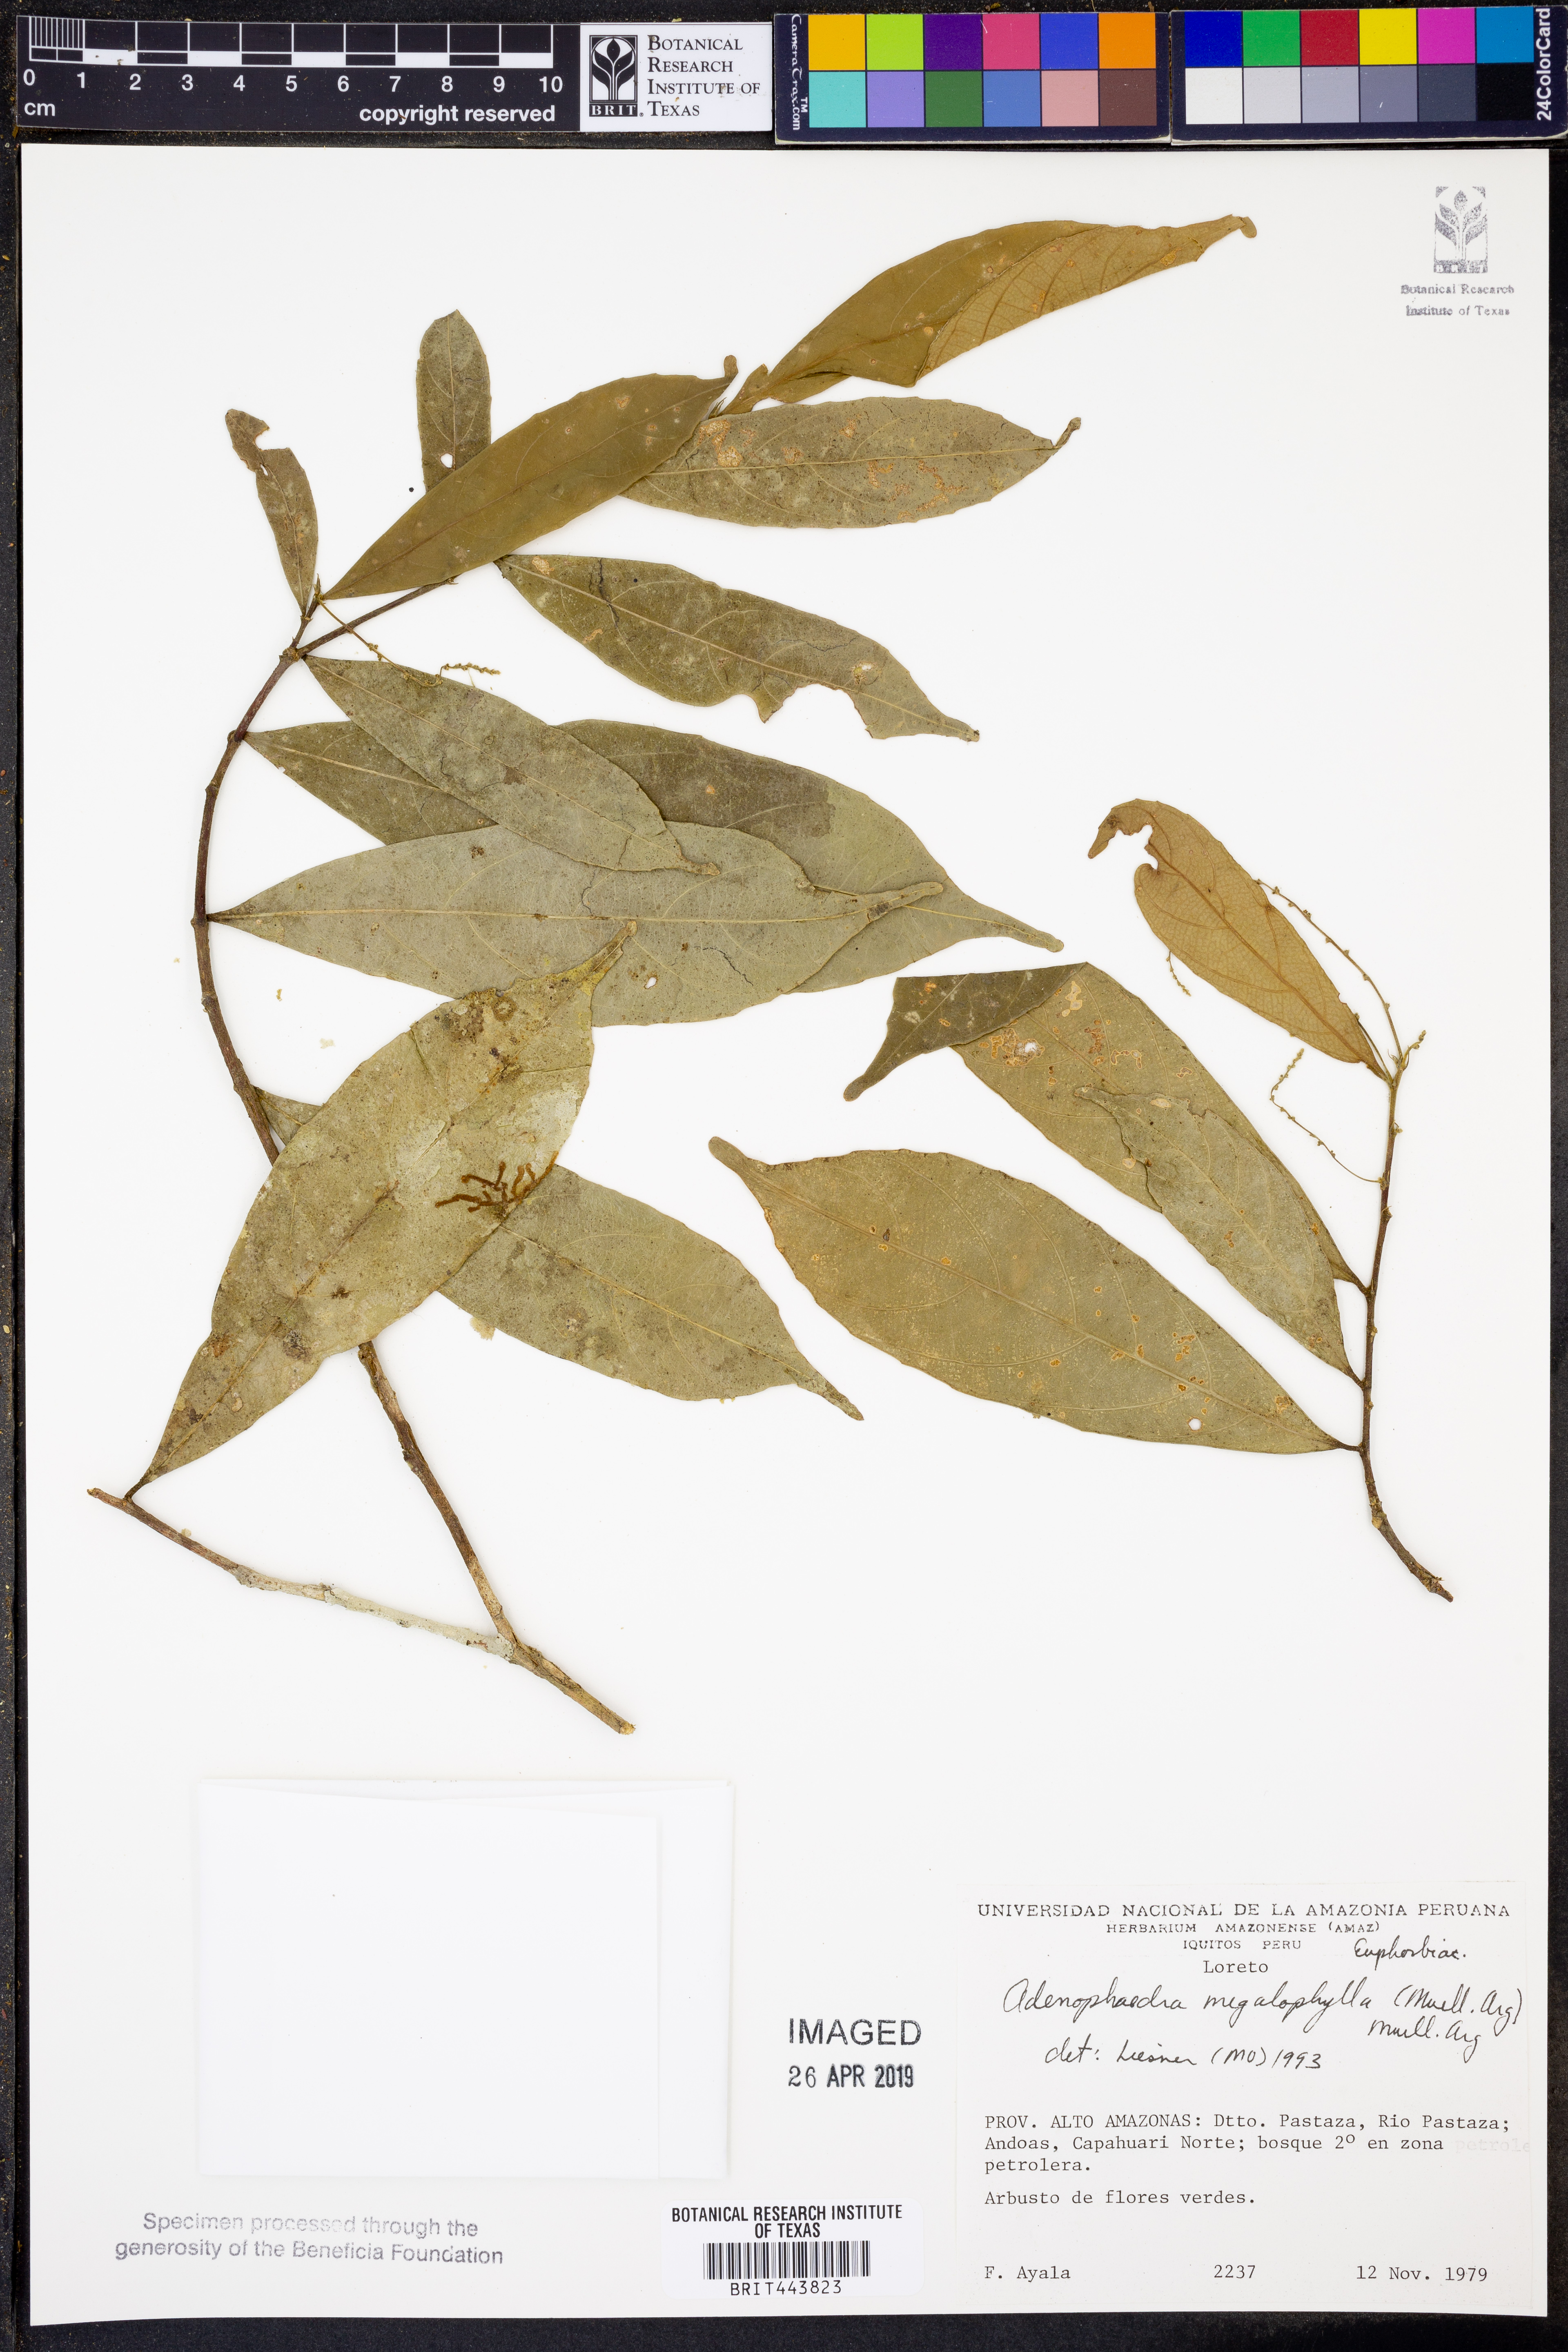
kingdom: Plantae
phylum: Tracheophyta
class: Magnoliopsida
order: Malpighiales
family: Euphorbiaceae
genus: Adenophaedra
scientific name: Adenophaedra megalophylla
